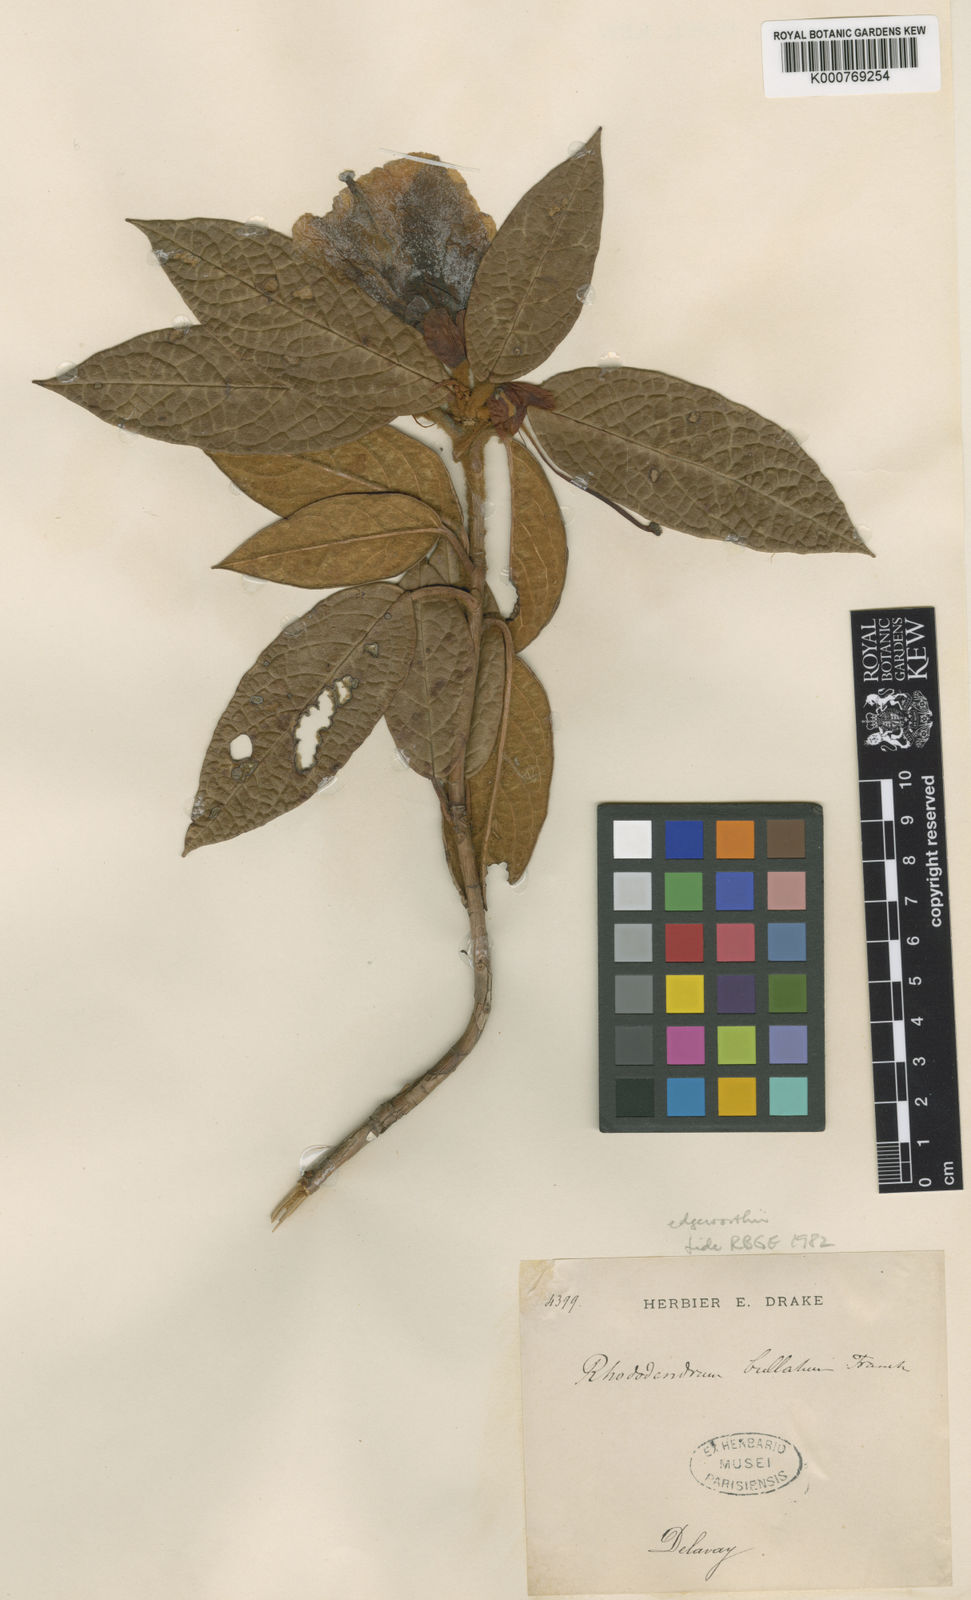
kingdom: Plantae
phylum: Tracheophyta
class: Magnoliopsida
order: Ericales
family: Ericaceae
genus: Rhododendron
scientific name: Rhododendron edgeworthii
